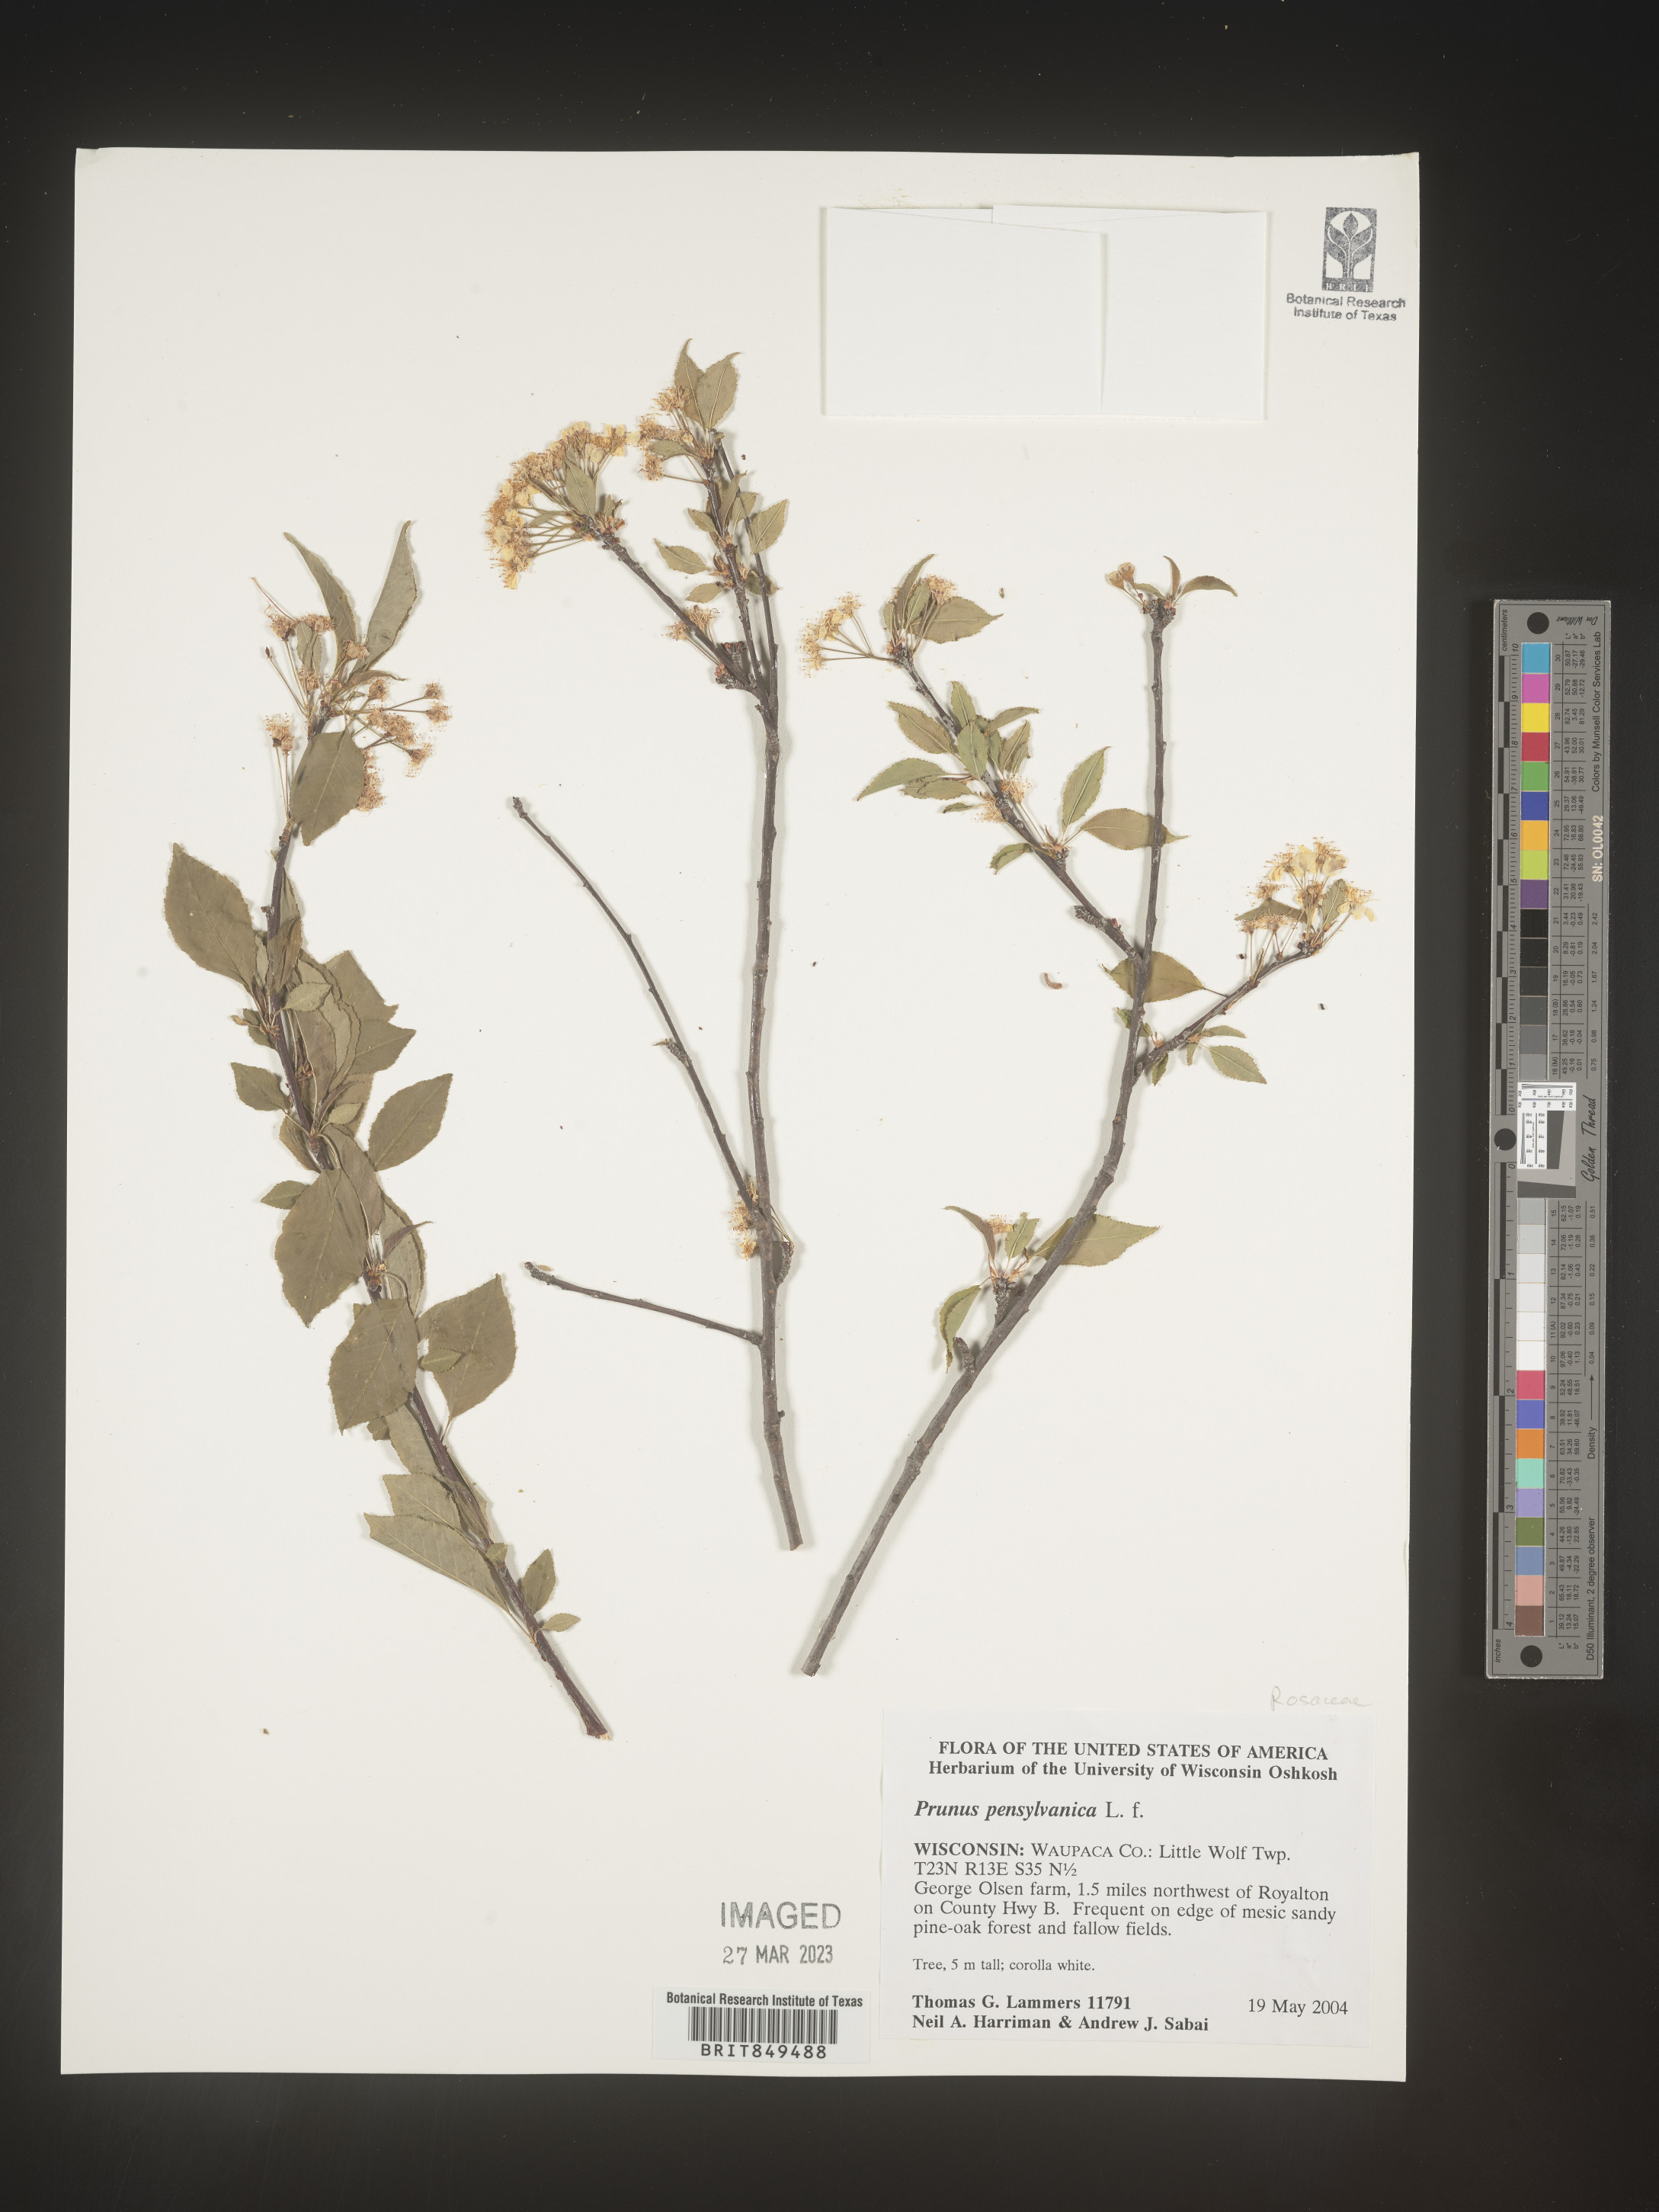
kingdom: Plantae
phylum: Tracheophyta
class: Magnoliopsida
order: Rosales
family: Rosaceae
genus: Prunus
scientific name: Prunus pensylvanica
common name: Pin cherry
